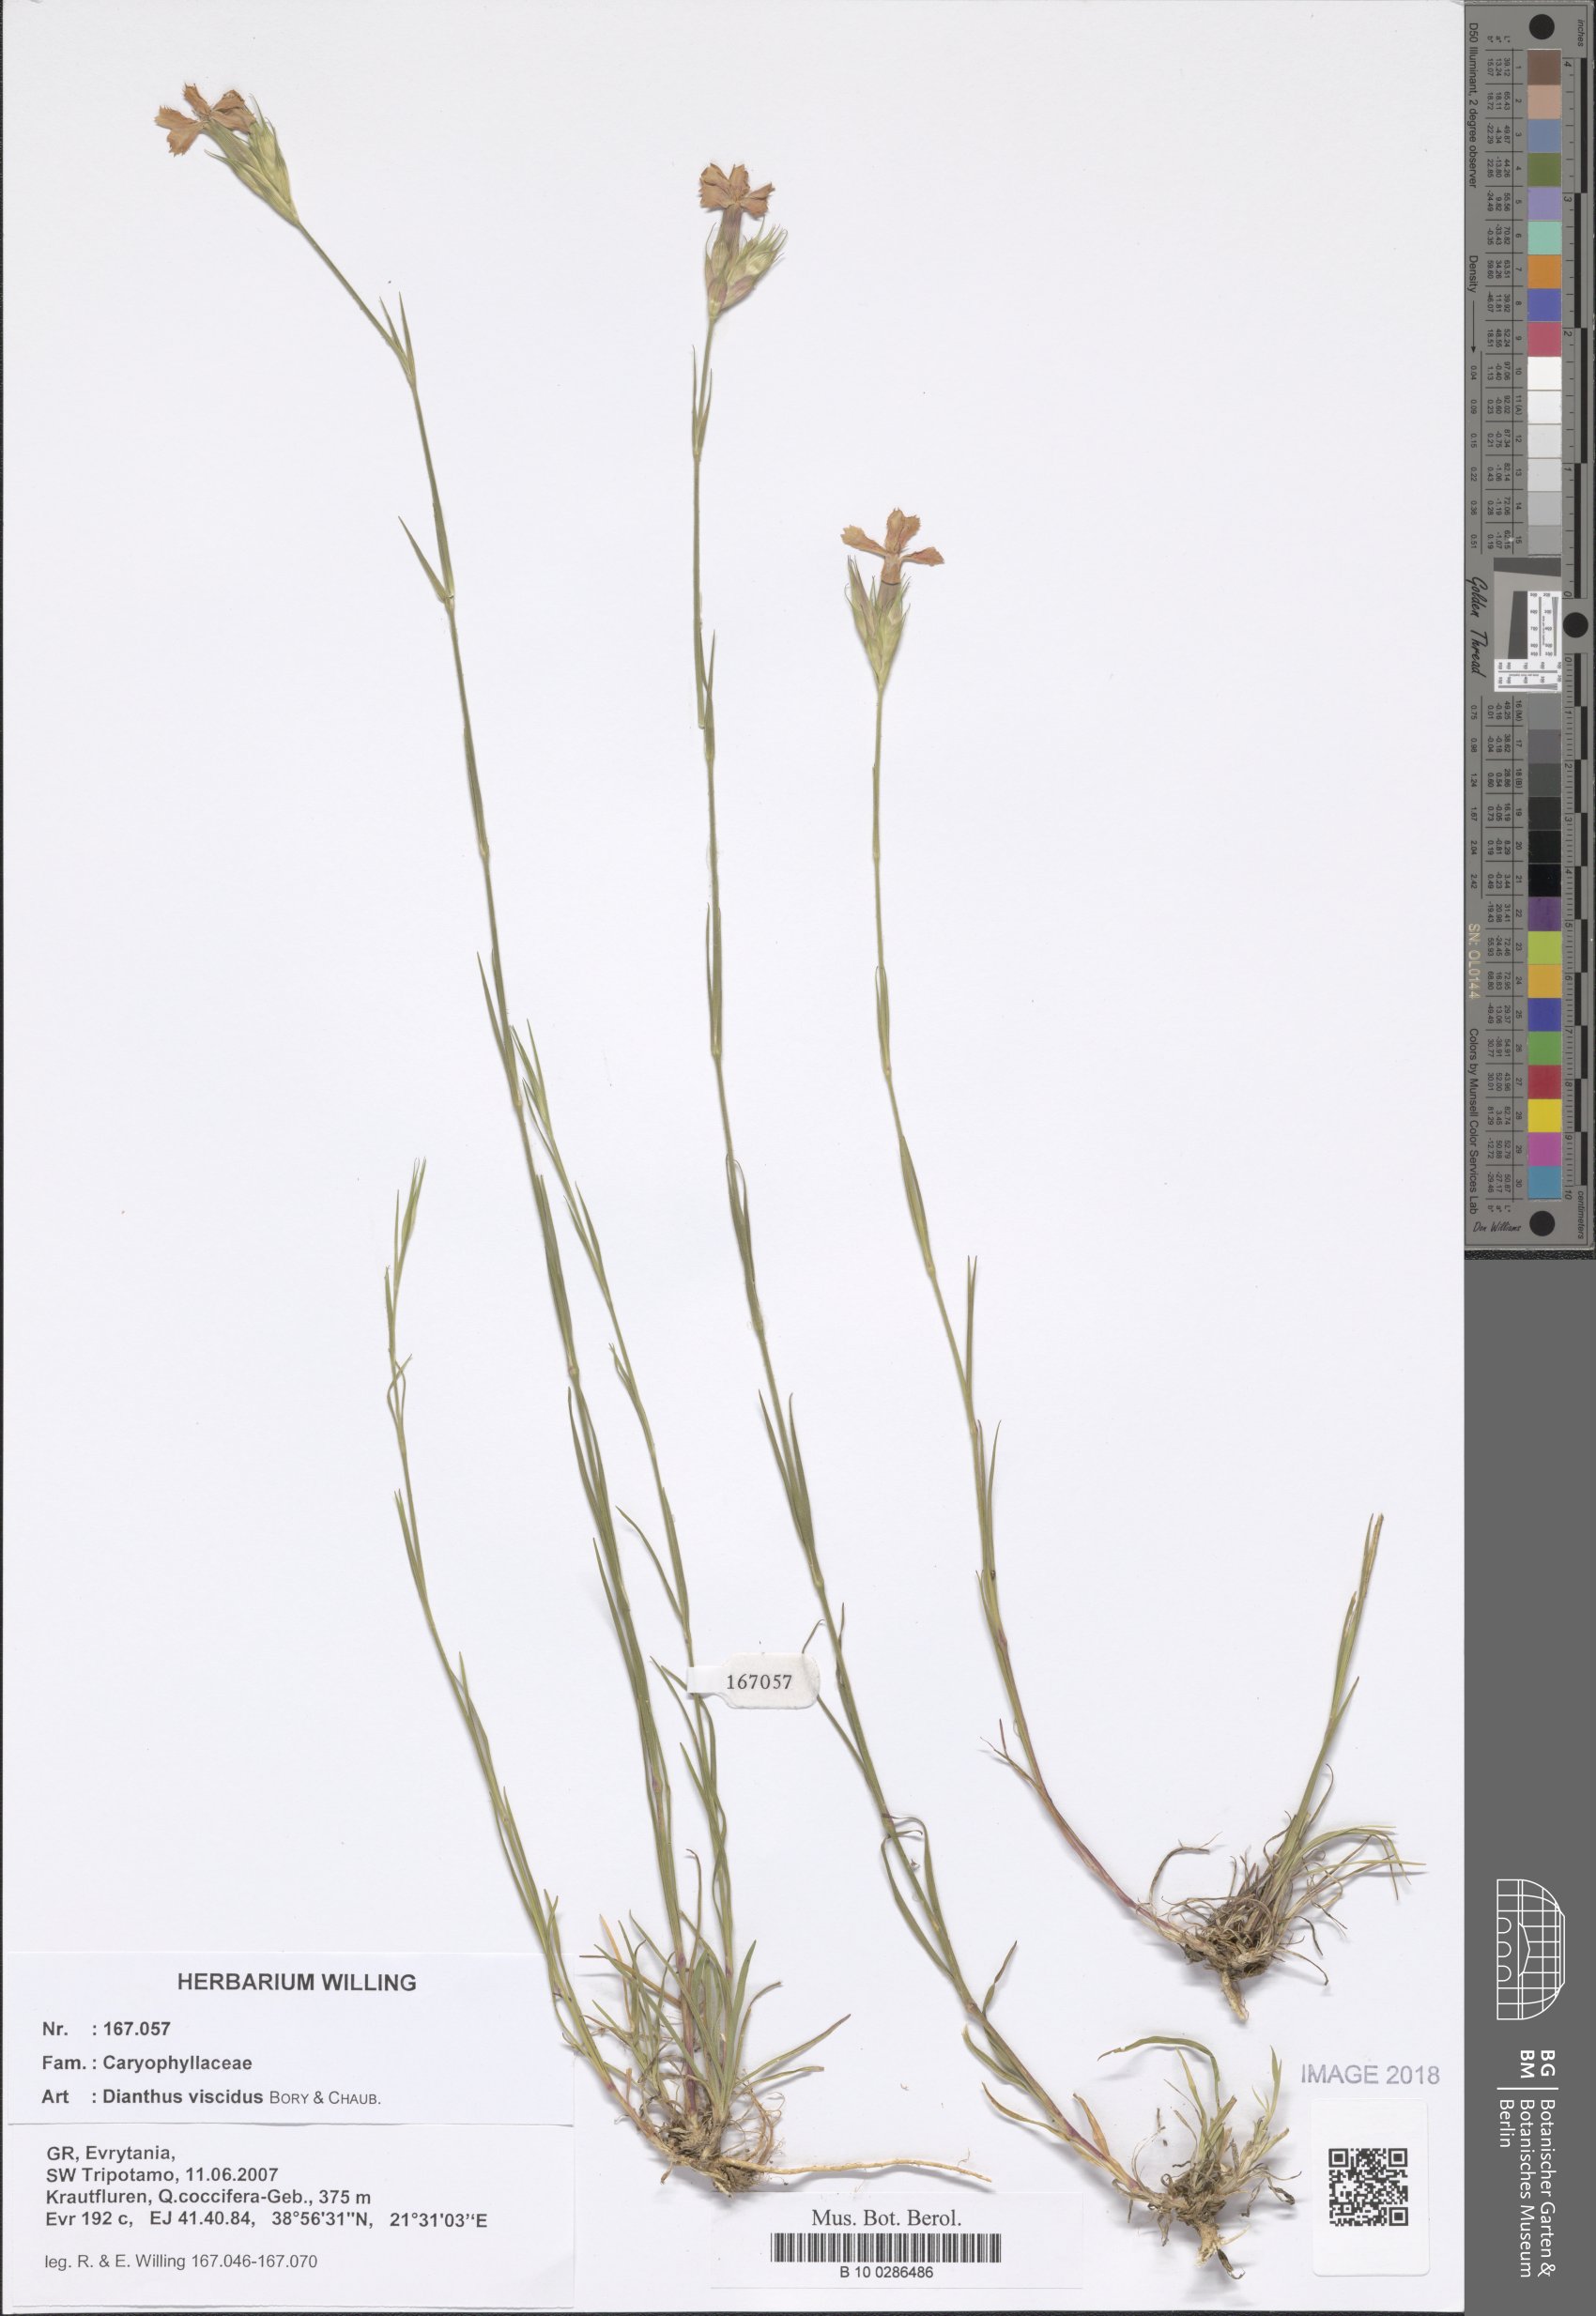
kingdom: Plantae
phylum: Tracheophyta
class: Magnoliopsida
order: Caryophyllales
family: Caryophyllaceae
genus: Dianthus
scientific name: Dianthus viscidus
